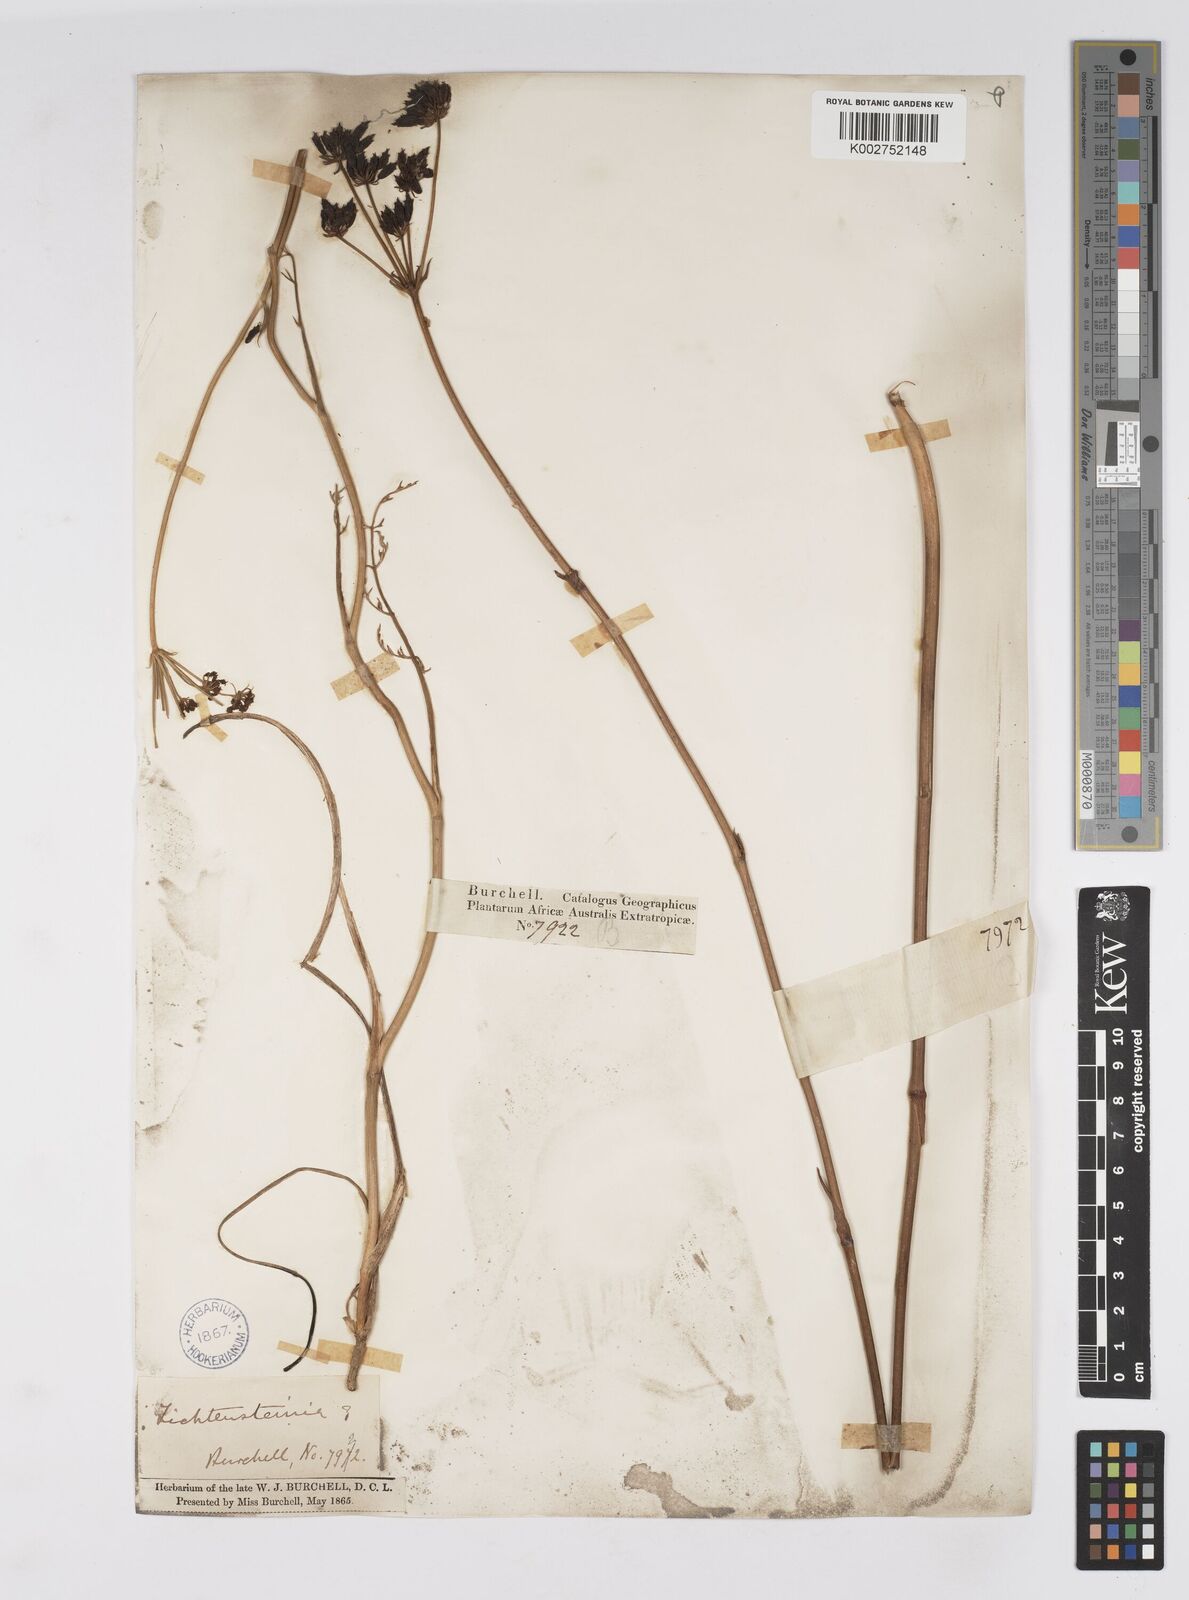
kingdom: Plantae
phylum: Tracheophyta
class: Magnoliopsida
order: Apiales
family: Apiaceae
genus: Lichtensteinia
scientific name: Lichtensteinia
